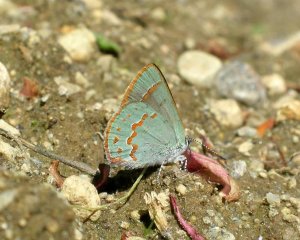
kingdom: Animalia
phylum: Arthropoda
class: Insecta
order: Lepidoptera
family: Lycaenidae
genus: Erora
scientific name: Erora laeta
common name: Early Hairstreak
